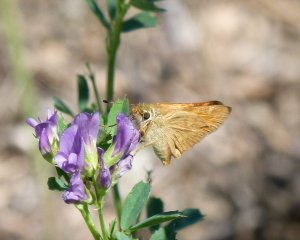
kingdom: Animalia
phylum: Arthropoda
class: Insecta
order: Lepidoptera
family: Hesperiidae
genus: Ochlodes
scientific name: Ochlodes sylvanoides
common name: Woodland Skipper
